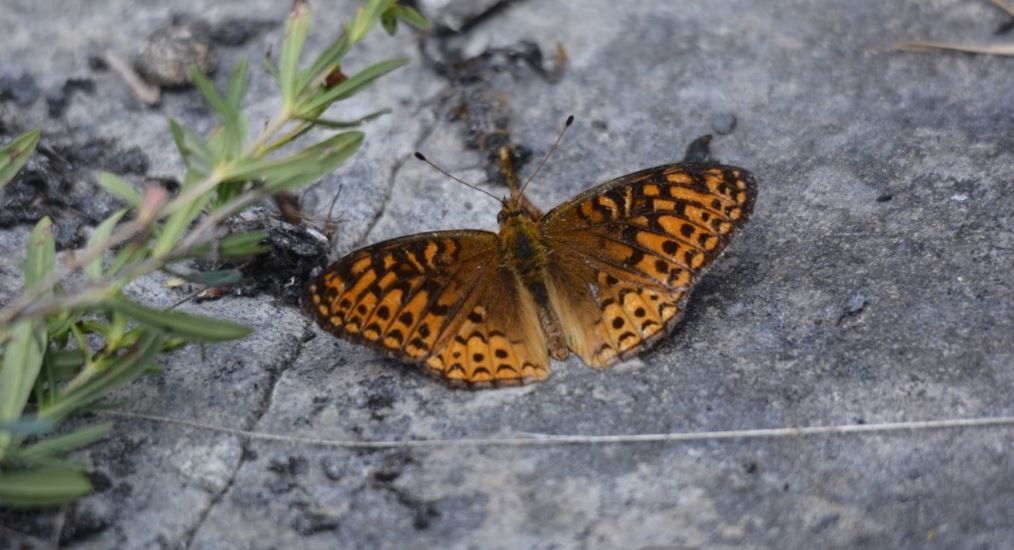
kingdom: Animalia
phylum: Arthropoda
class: Insecta
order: Lepidoptera
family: Nymphalidae
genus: Speyeria
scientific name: Speyeria atlantis
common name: Atlantis Fritillary
